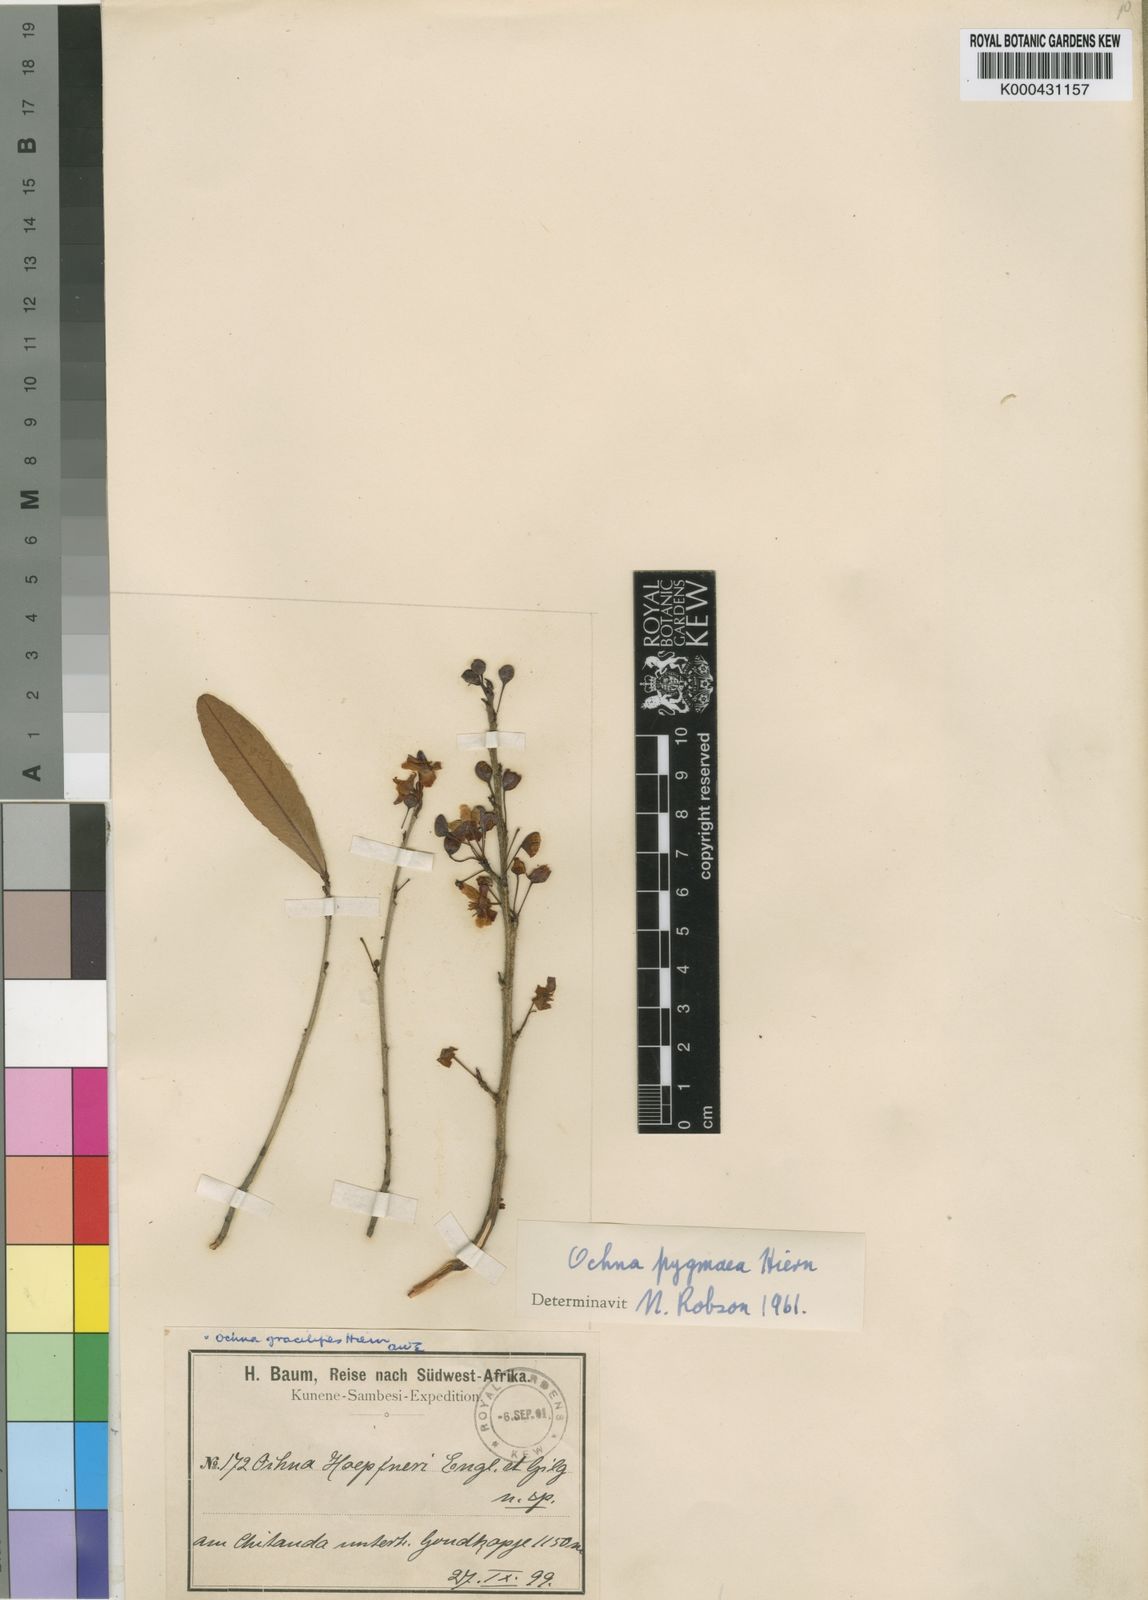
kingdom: Plantae
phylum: Tracheophyta
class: Magnoliopsida
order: Malpighiales
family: Ochnaceae
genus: Ochna
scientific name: Ochna pygmaea
